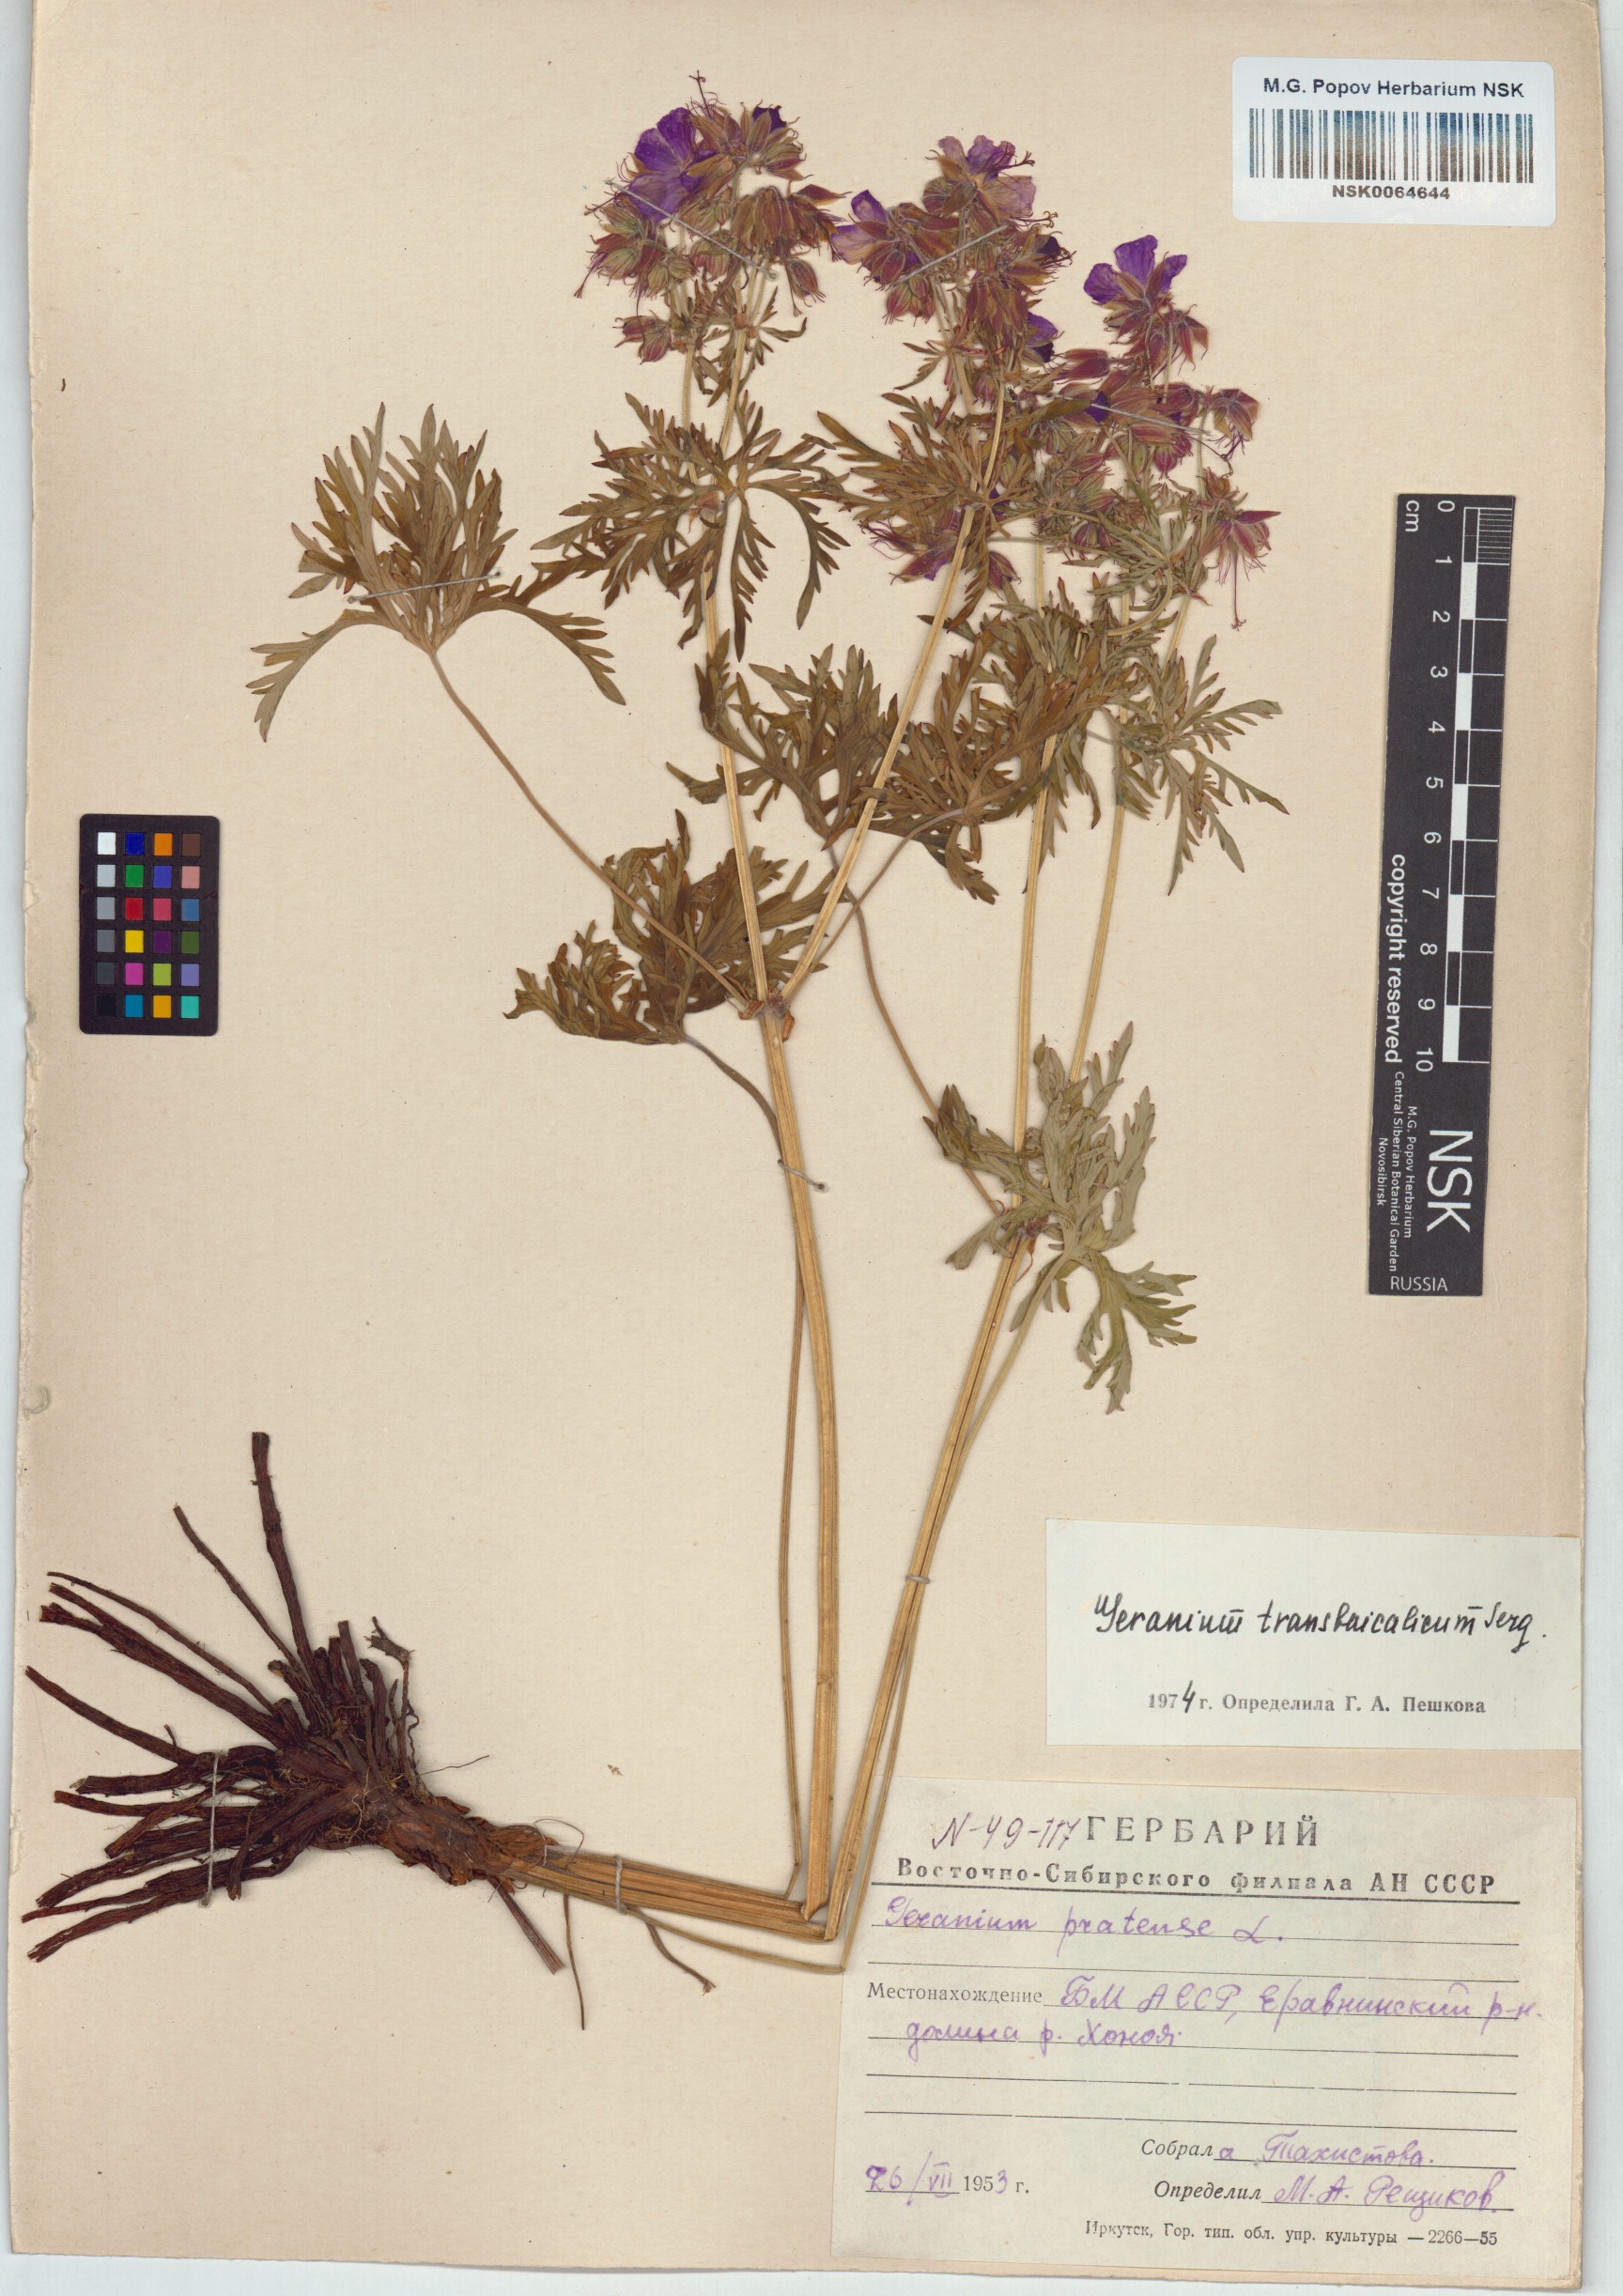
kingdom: Plantae
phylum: Tracheophyta
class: Magnoliopsida
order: Geraniales
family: Geraniaceae
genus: Geranium
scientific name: Geranium pratense
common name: Meadow crane's-bill
